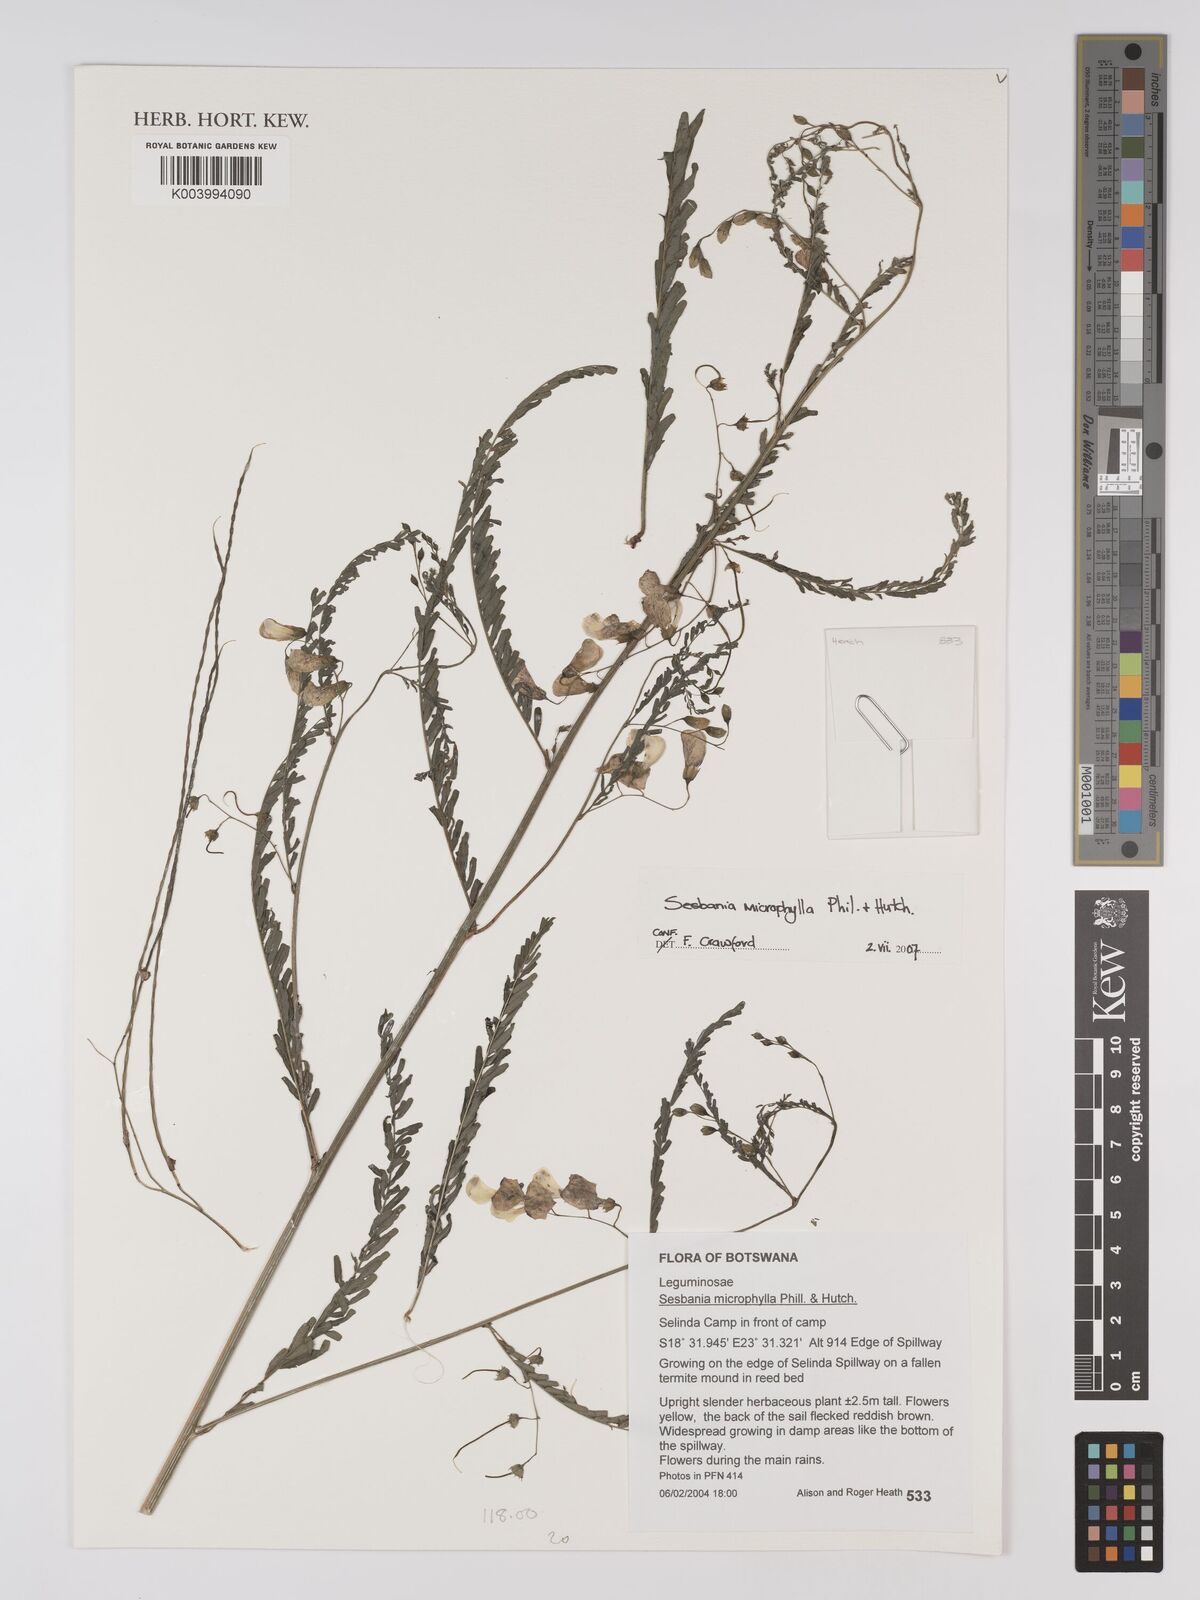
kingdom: Plantae
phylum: Tracheophyta
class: Magnoliopsida
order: Fabales
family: Fabaceae
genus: Sesbania
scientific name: Sesbania microphylla
